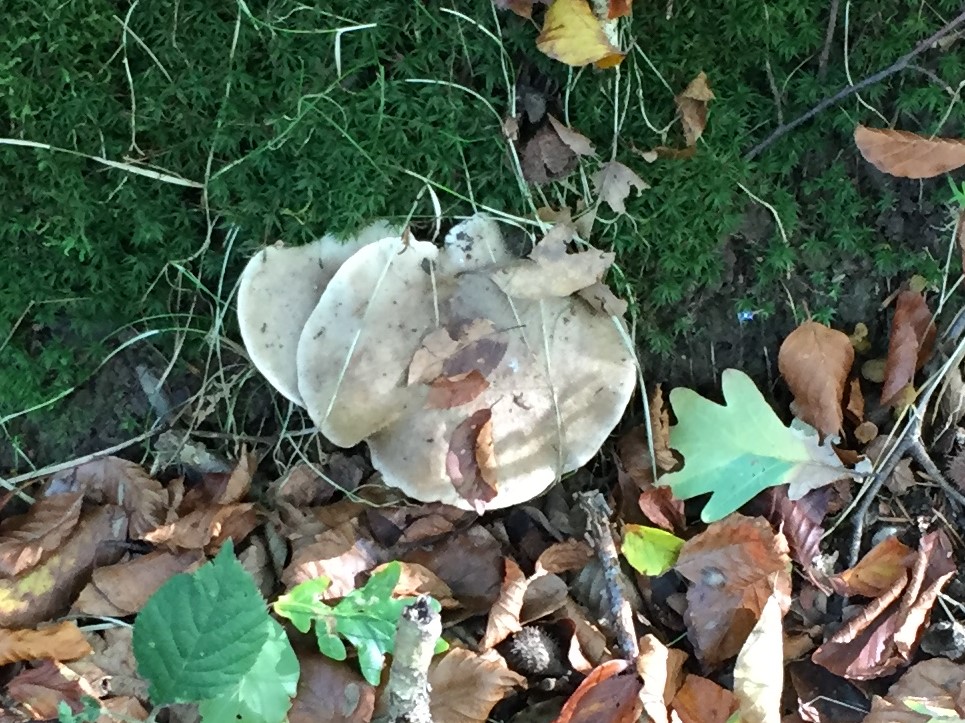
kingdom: Fungi
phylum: Basidiomycota
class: Agaricomycetes
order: Russulales
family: Russulaceae
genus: Lactarius
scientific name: Lactarius fluens
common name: lysrandet mælkehat
